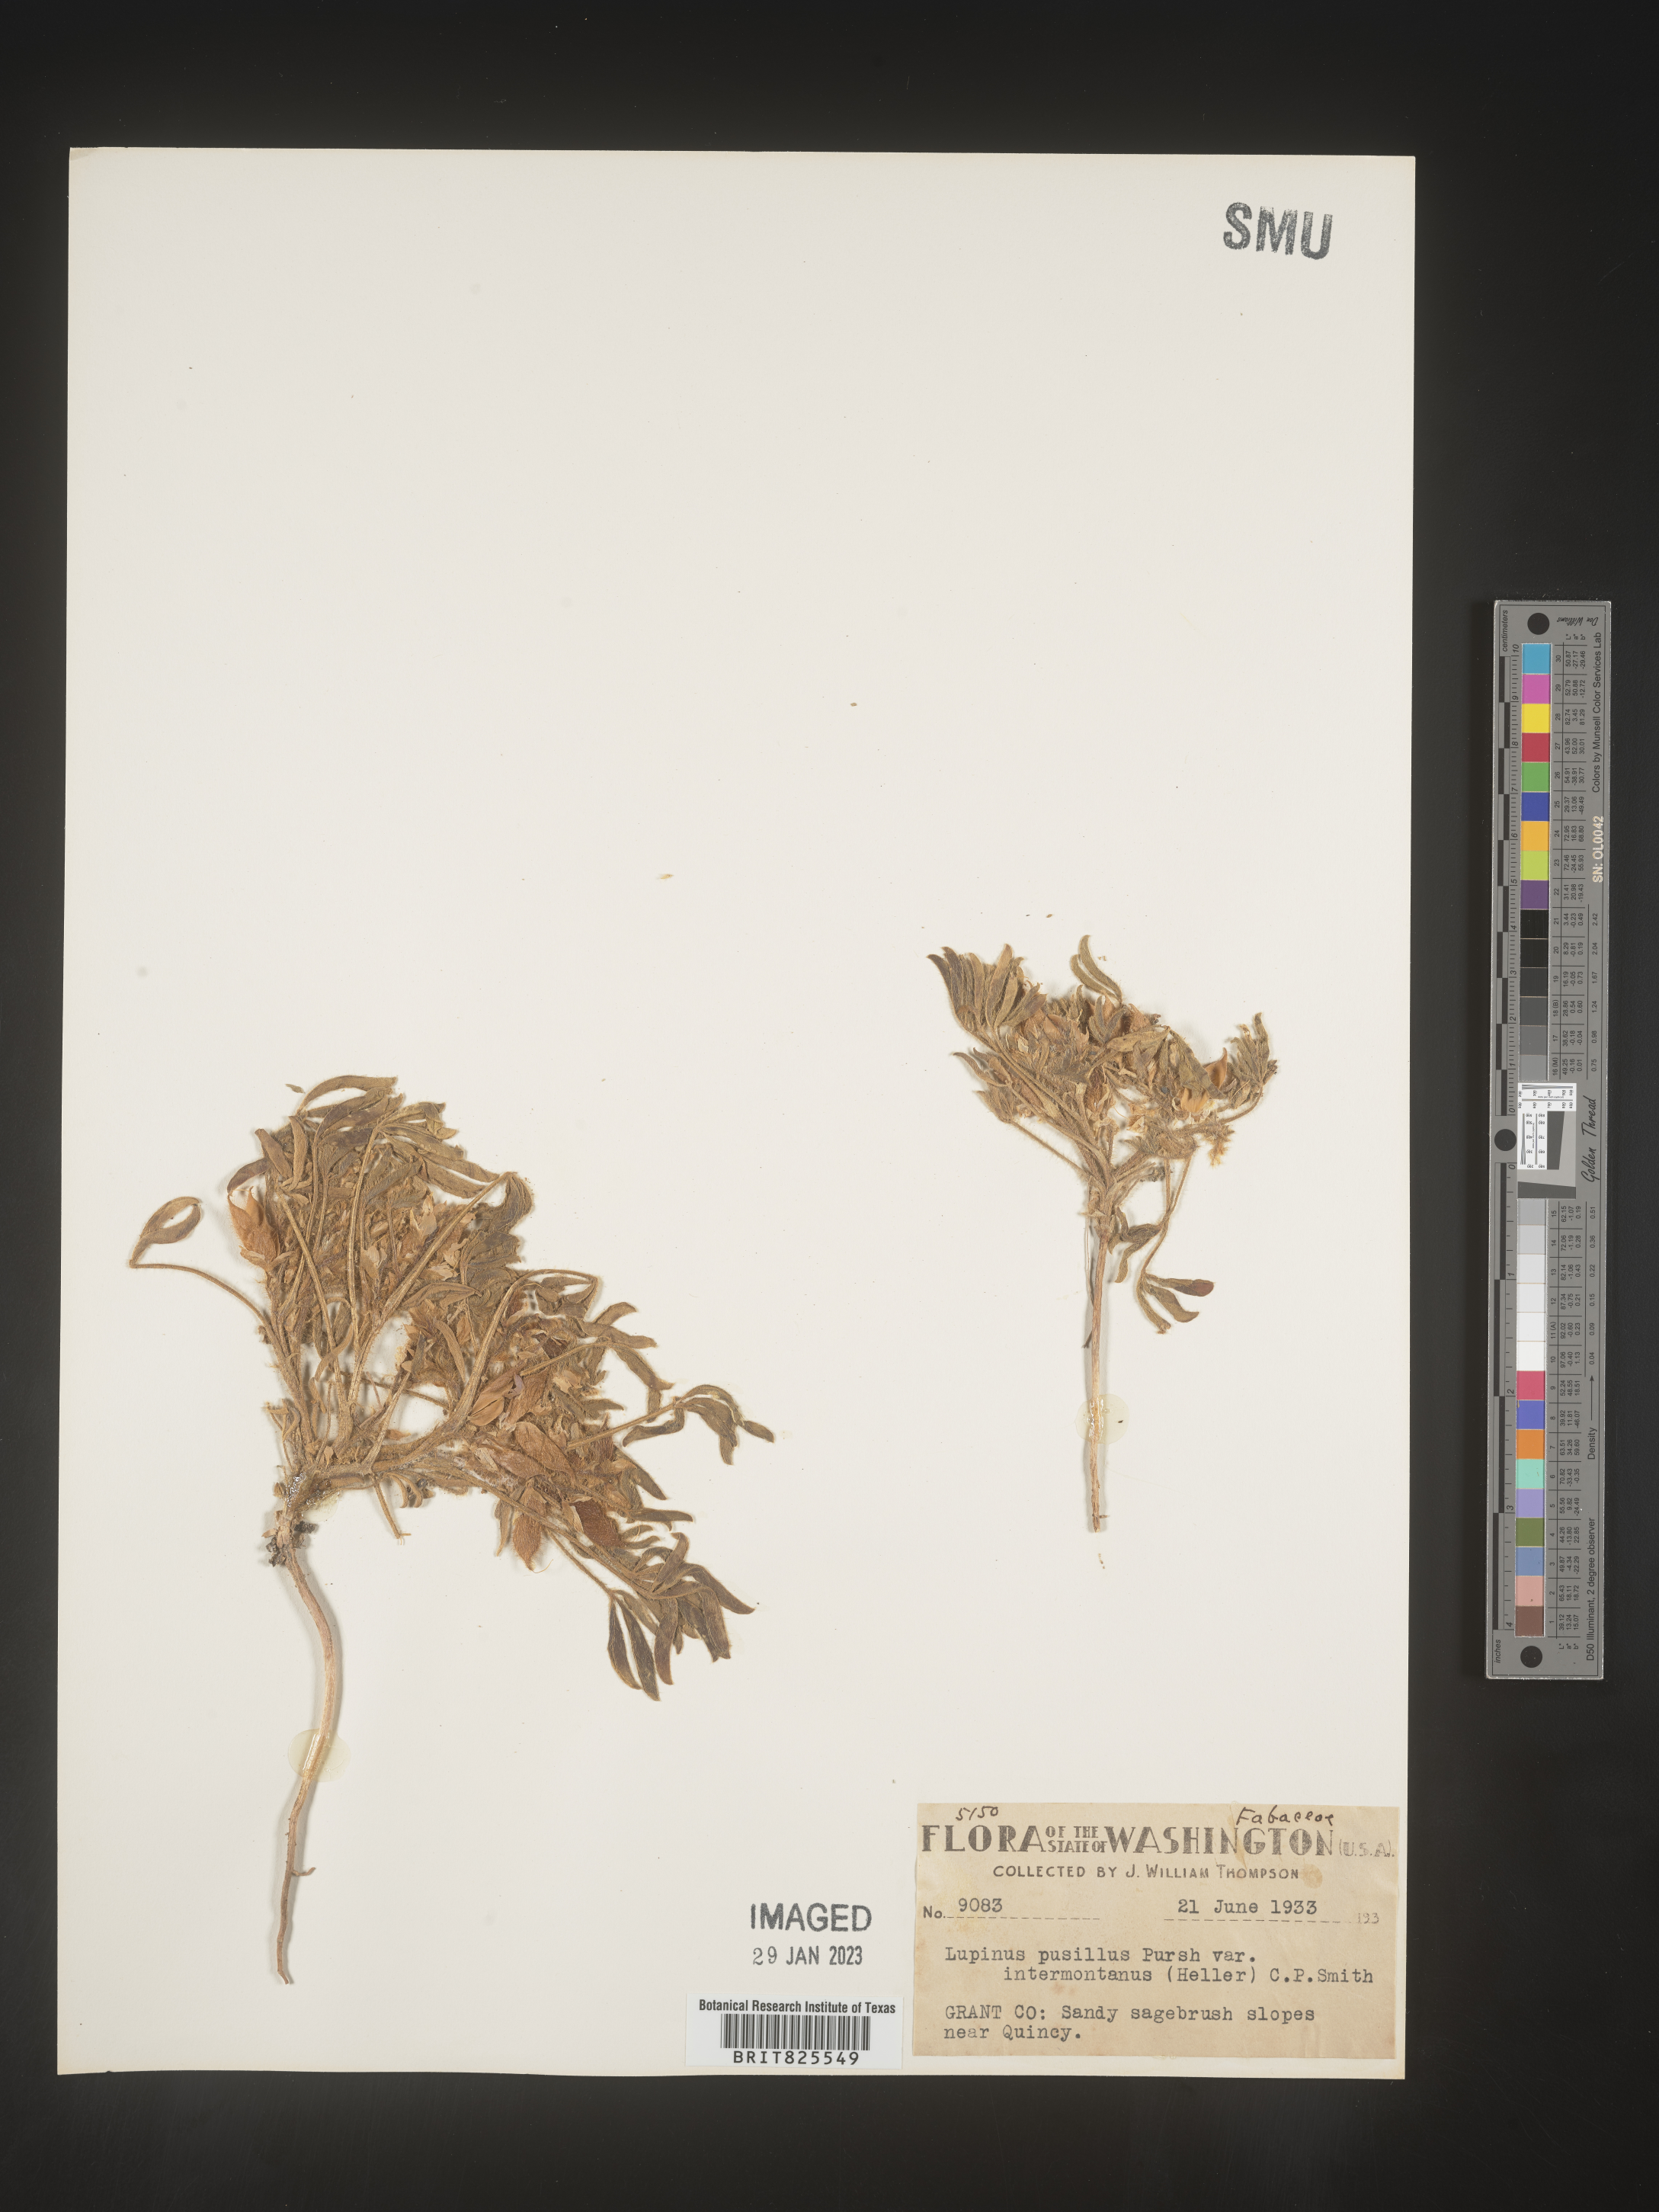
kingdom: Plantae
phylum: Tracheophyta
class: Magnoliopsida
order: Fabales
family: Fabaceae
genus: Lupinus
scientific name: Lupinus
